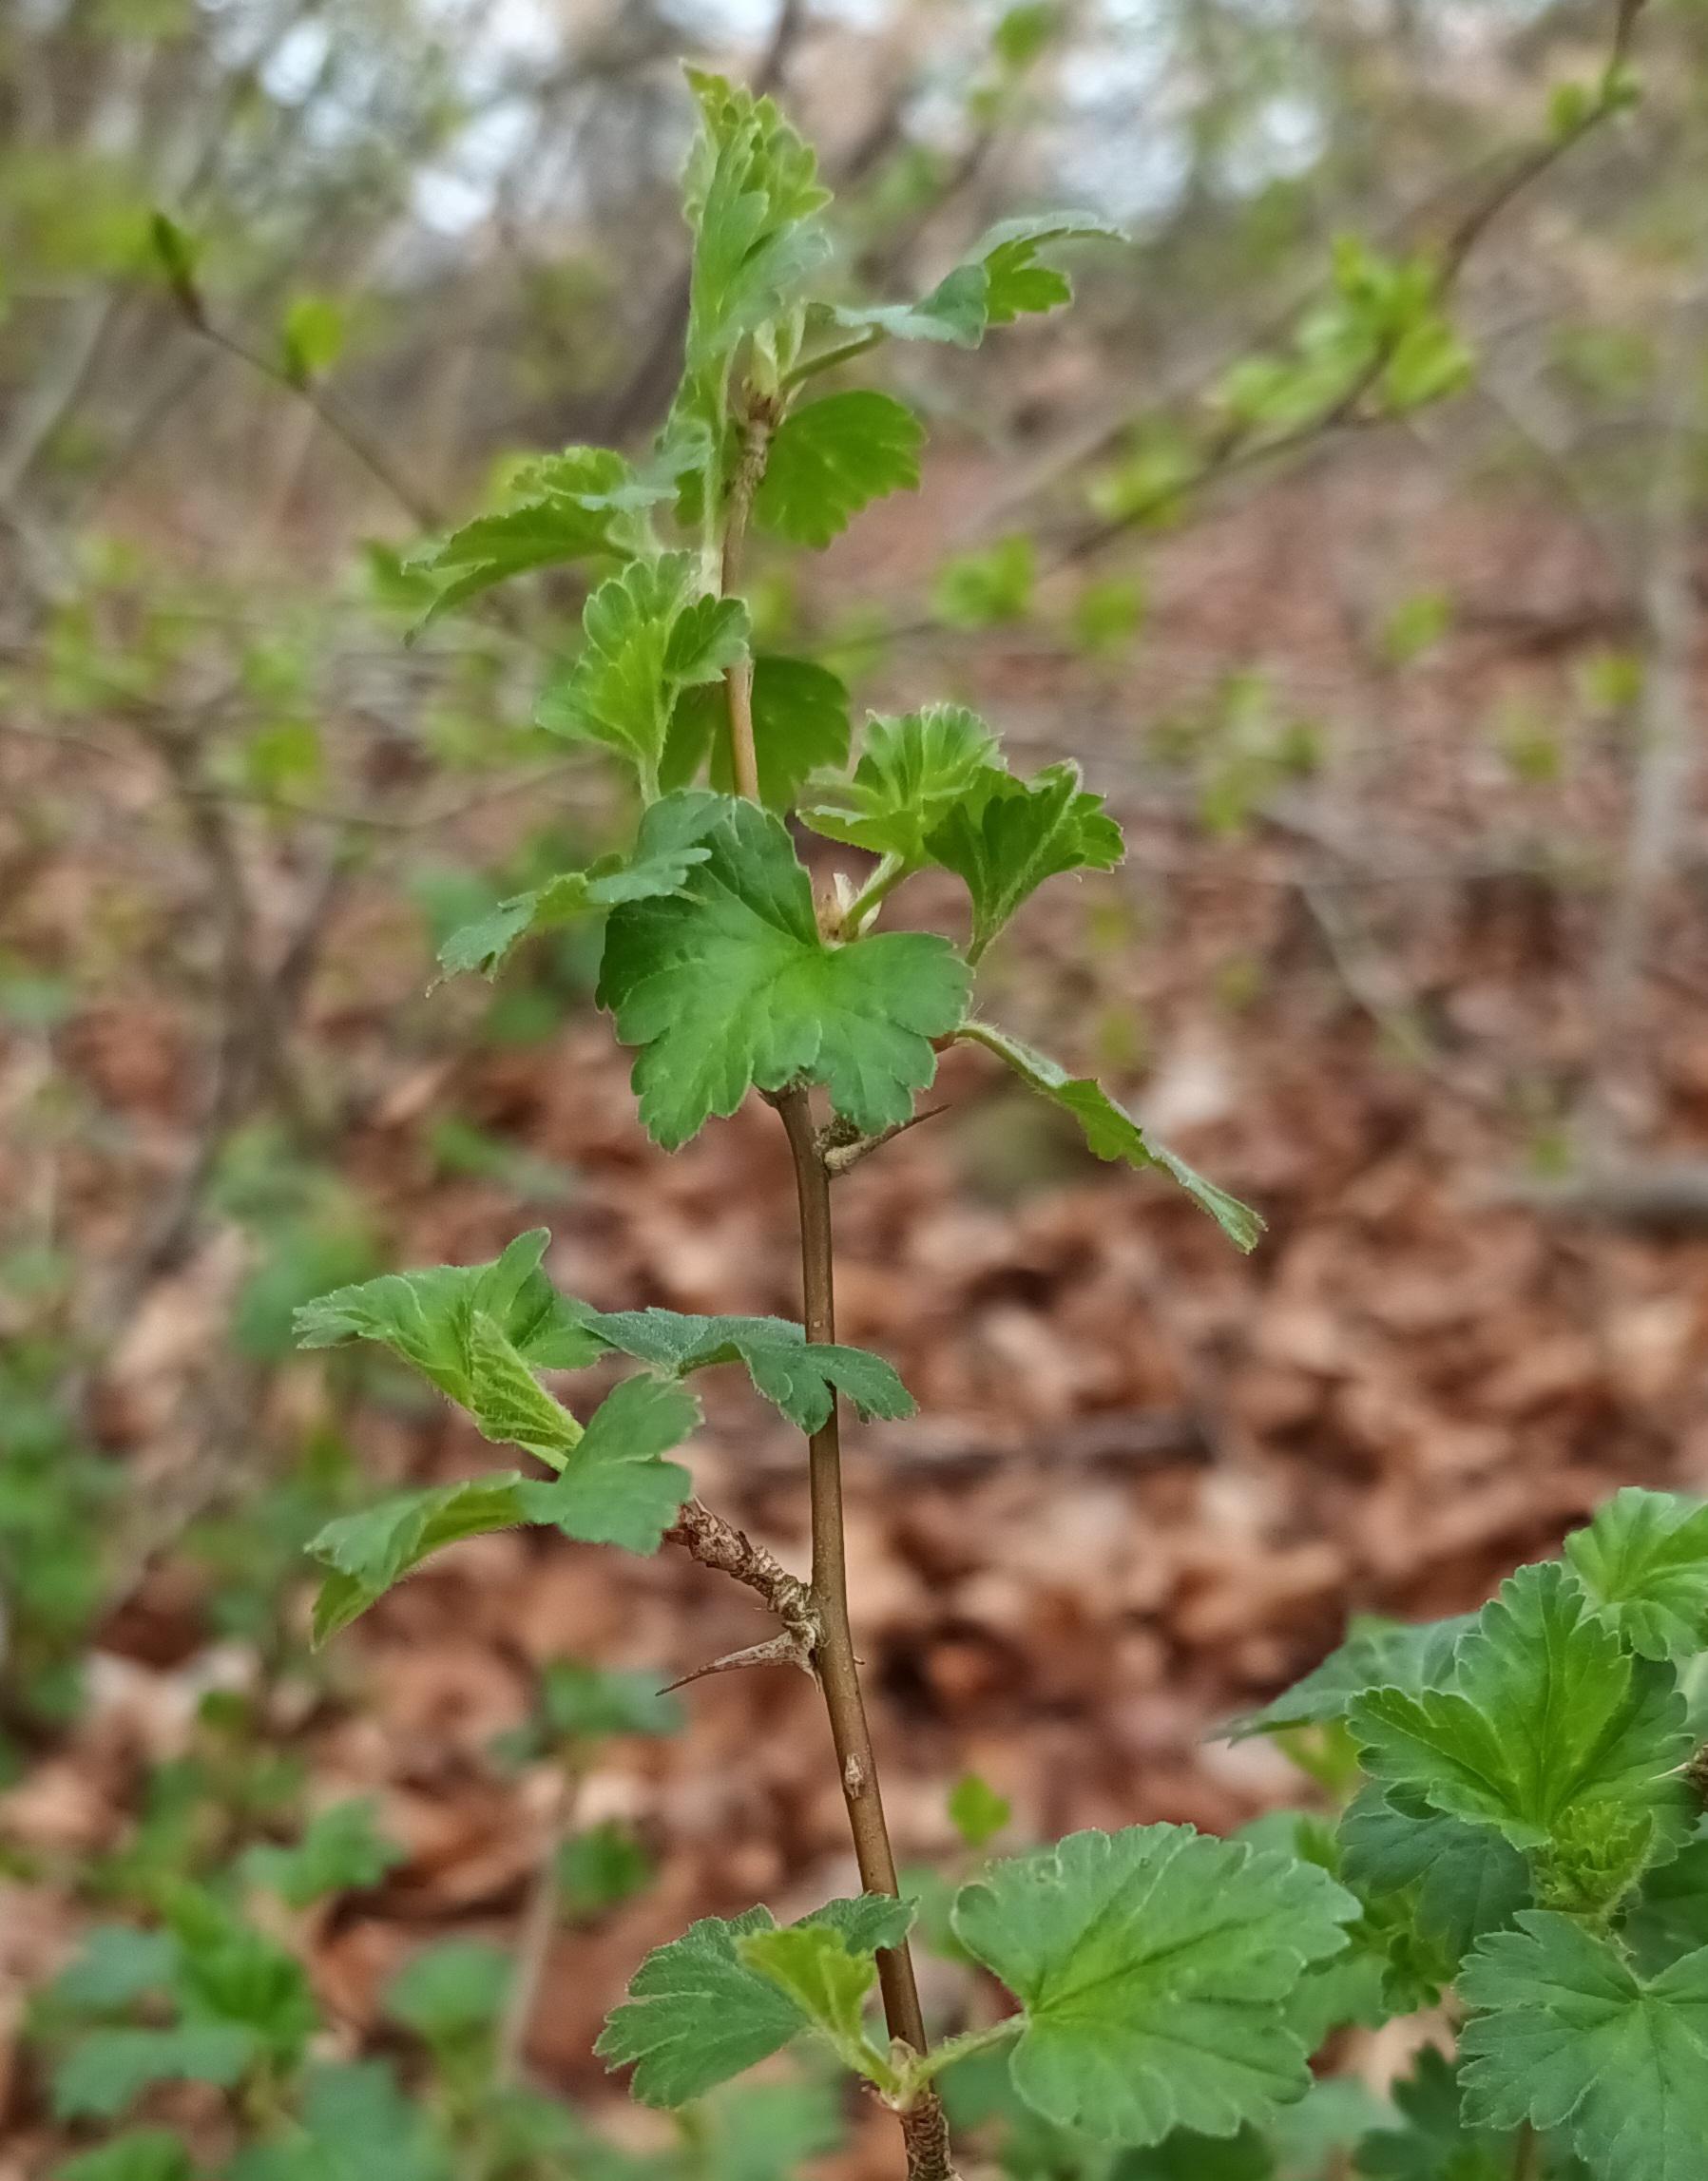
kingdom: Plantae
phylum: Tracheophyta
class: Magnoliopsida
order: Saxifragales
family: Grossulariaceae
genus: Ribes
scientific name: Ribes uva-crispa
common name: Stikkelsbær
